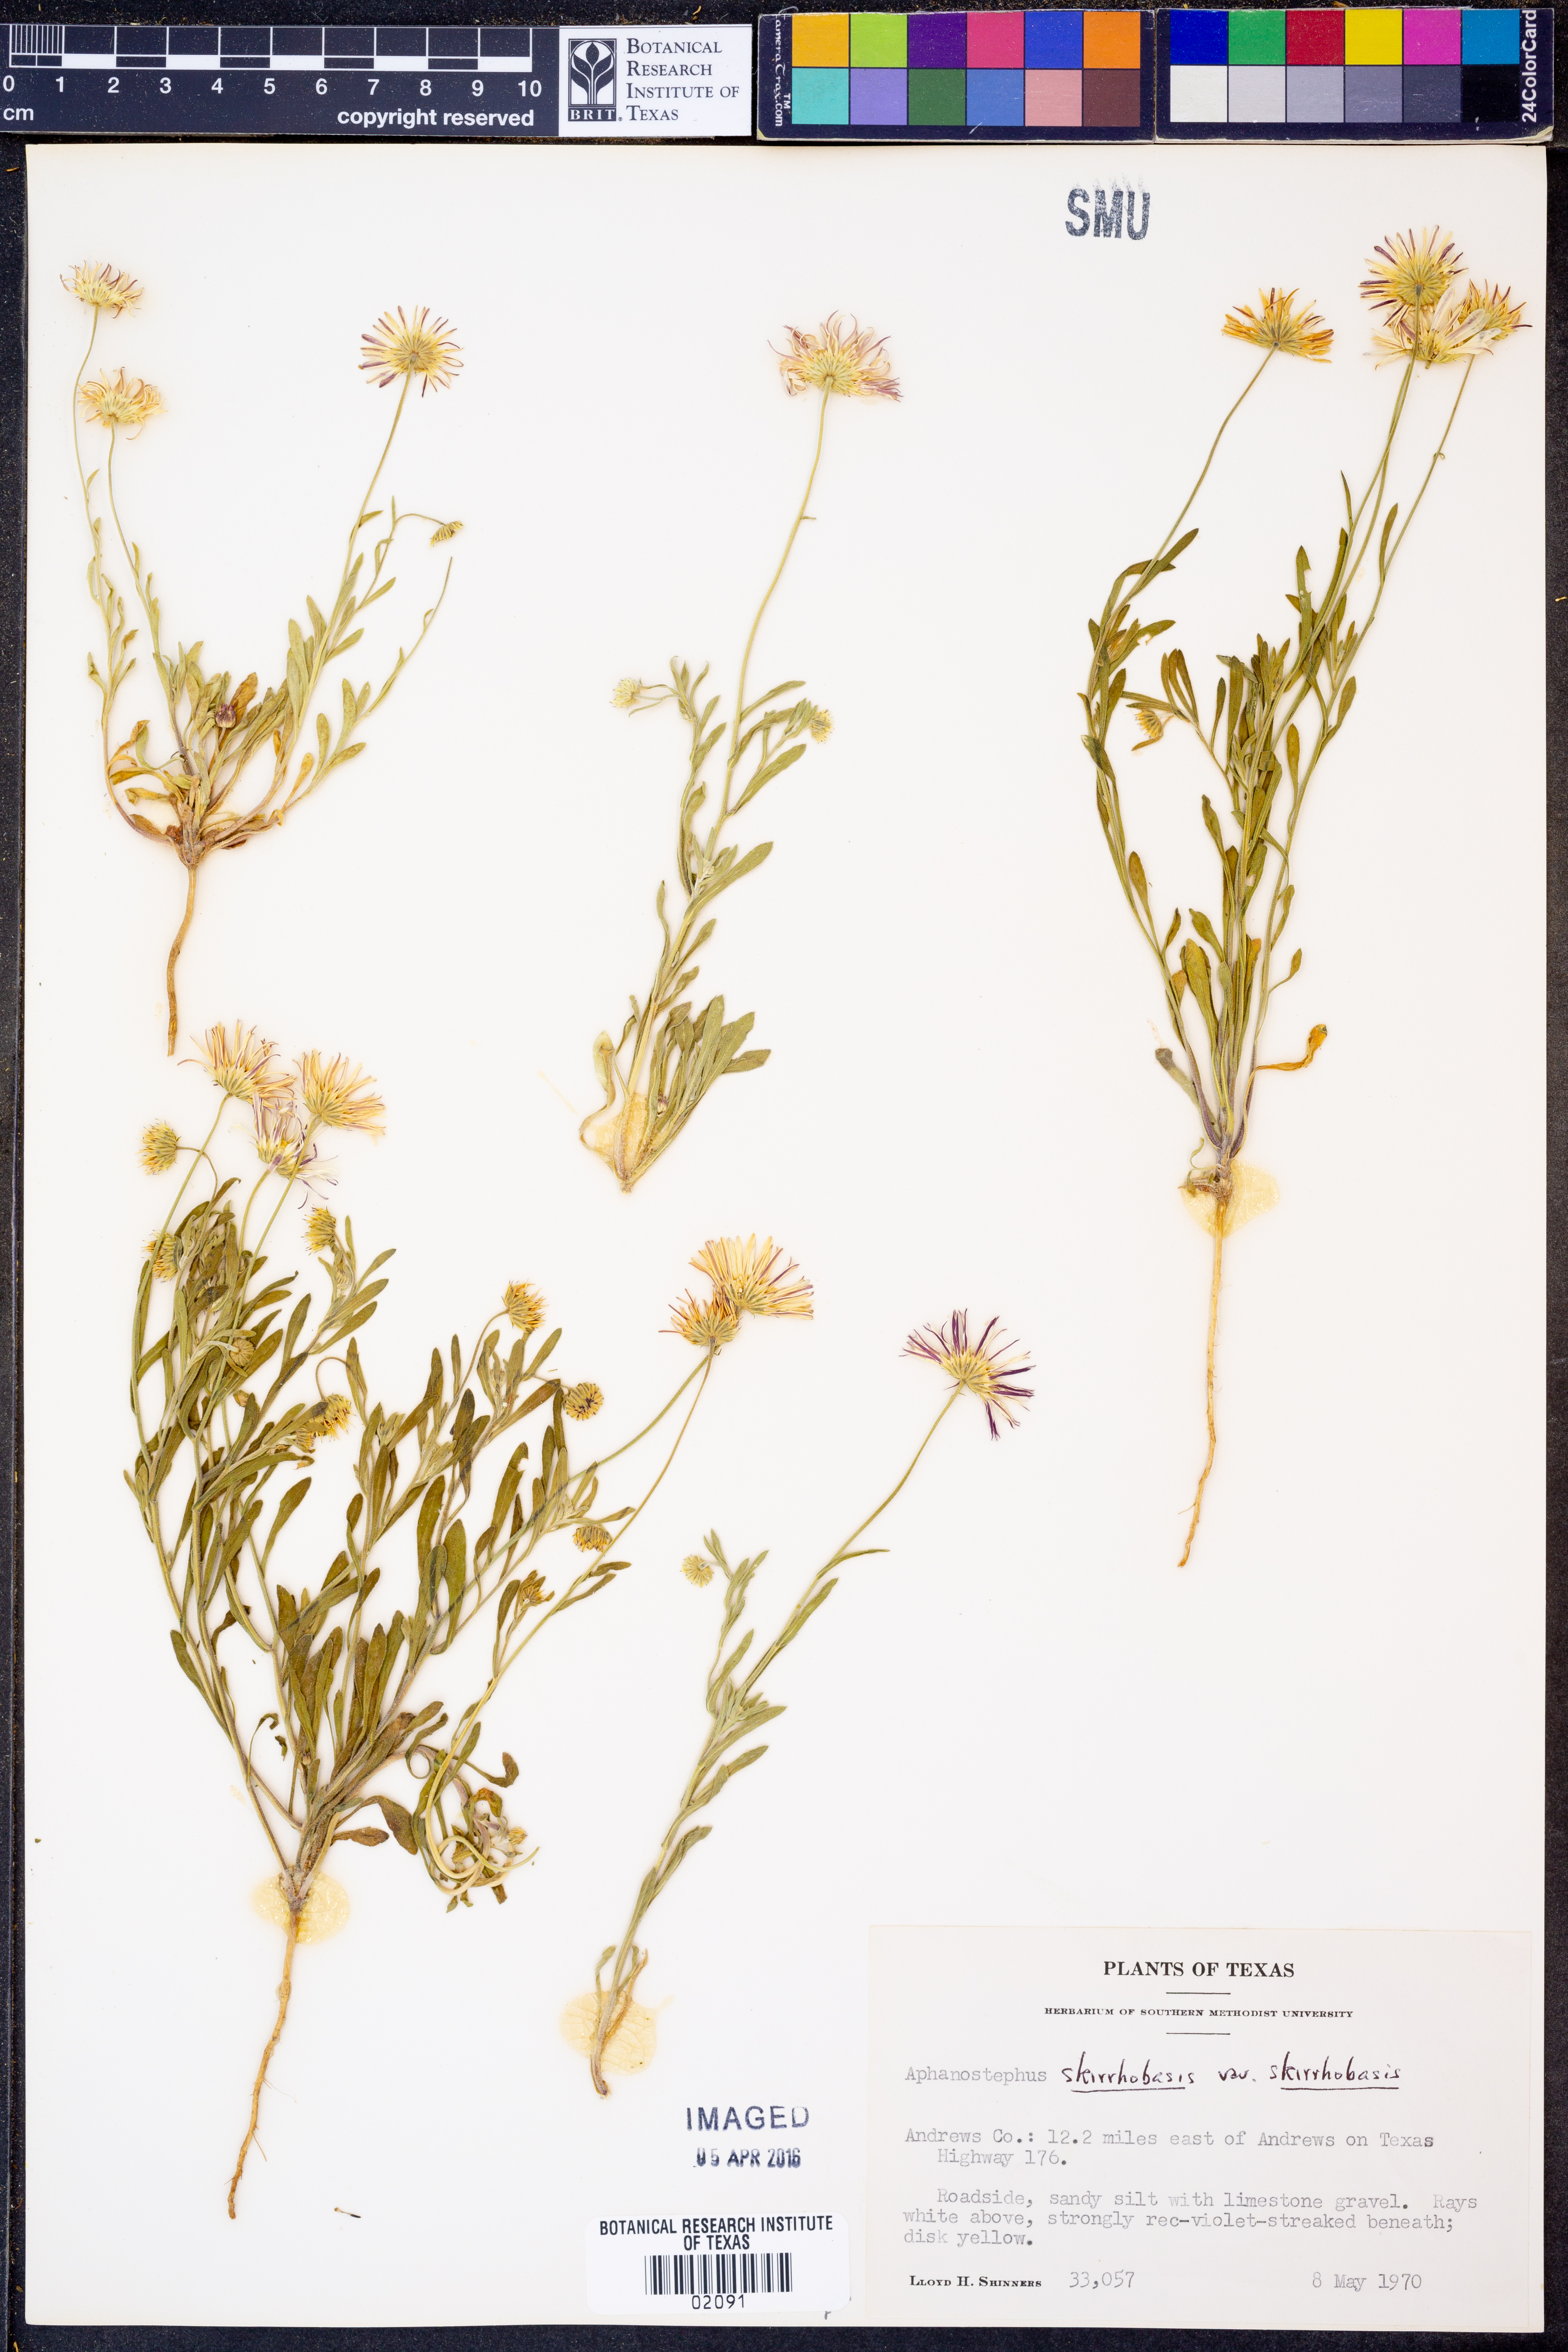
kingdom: Plantae
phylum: Tracheophyta
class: Magnoliopsida
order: Asterales
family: Asteraceae
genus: Aphanostephus
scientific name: Aphanostephus skirrhobasis
